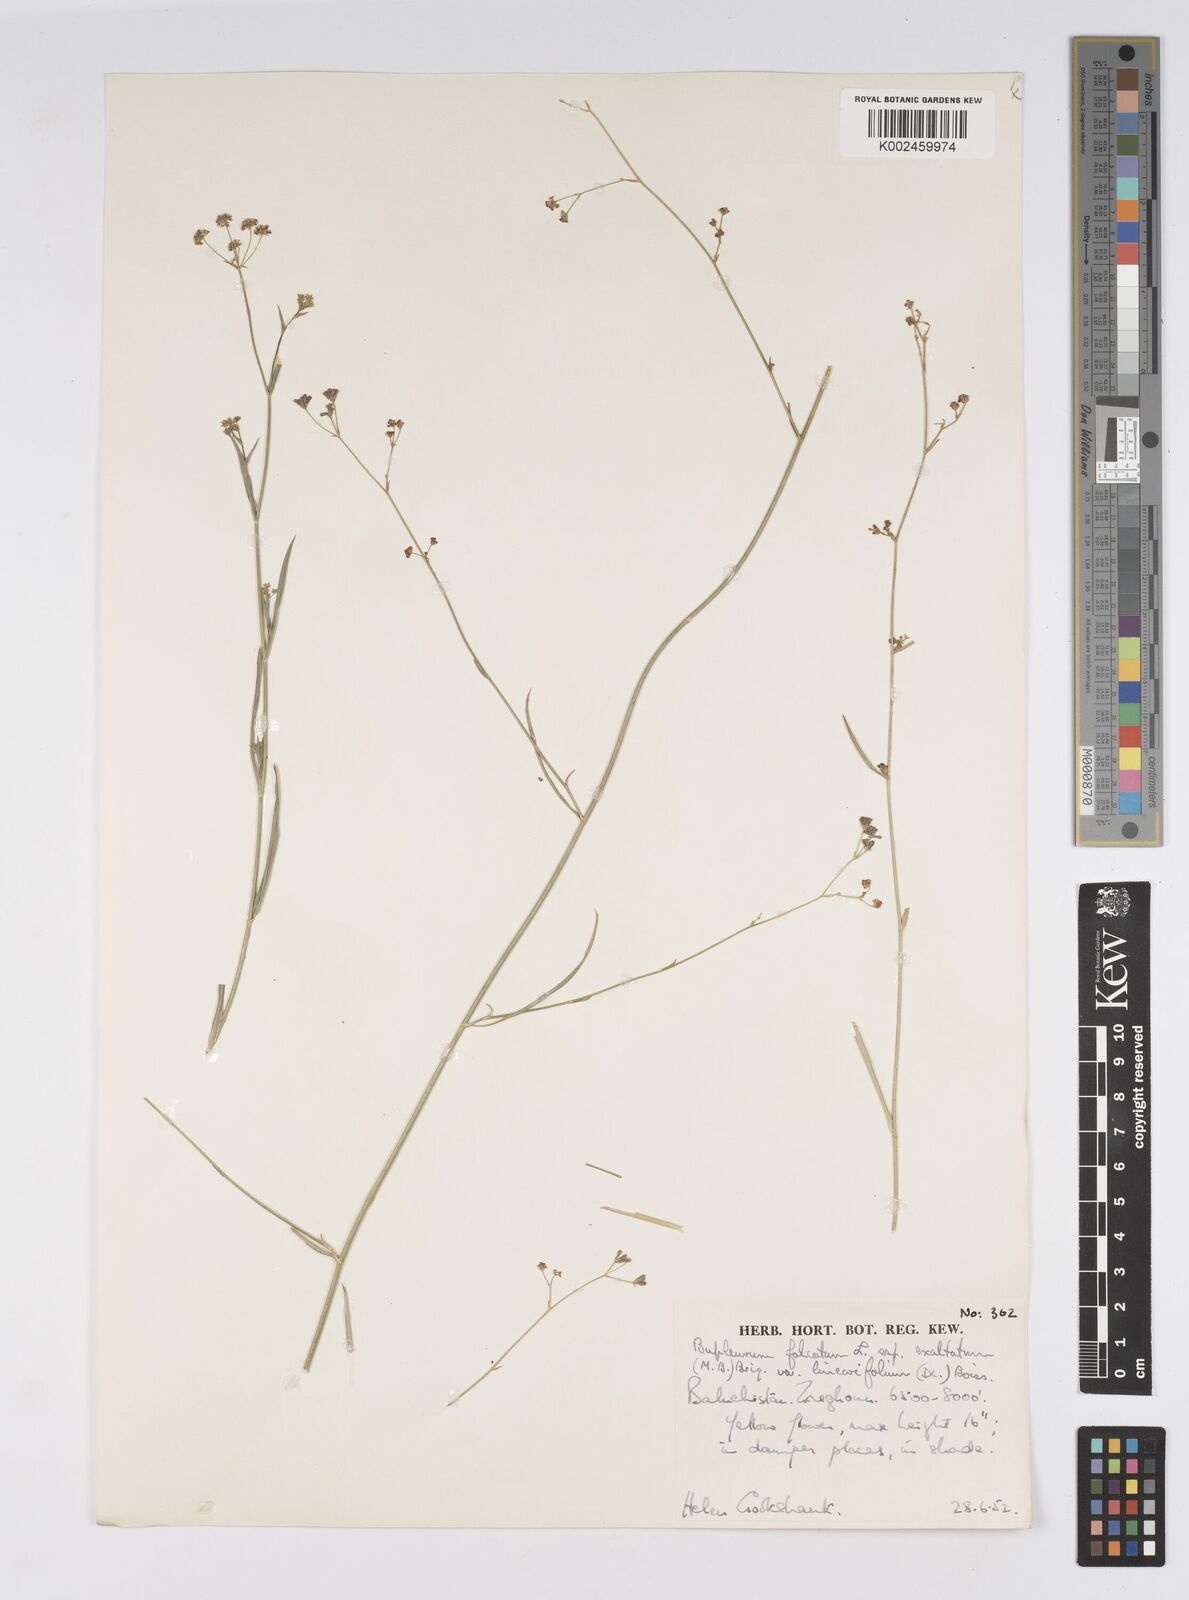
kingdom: Plantae
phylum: Tracheophyta
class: Magnoliopsida
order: Apiales
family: Apiaceae
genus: Bupleurum
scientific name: Bupleurum falcatum
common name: Sickle-leaved hare's-ear
